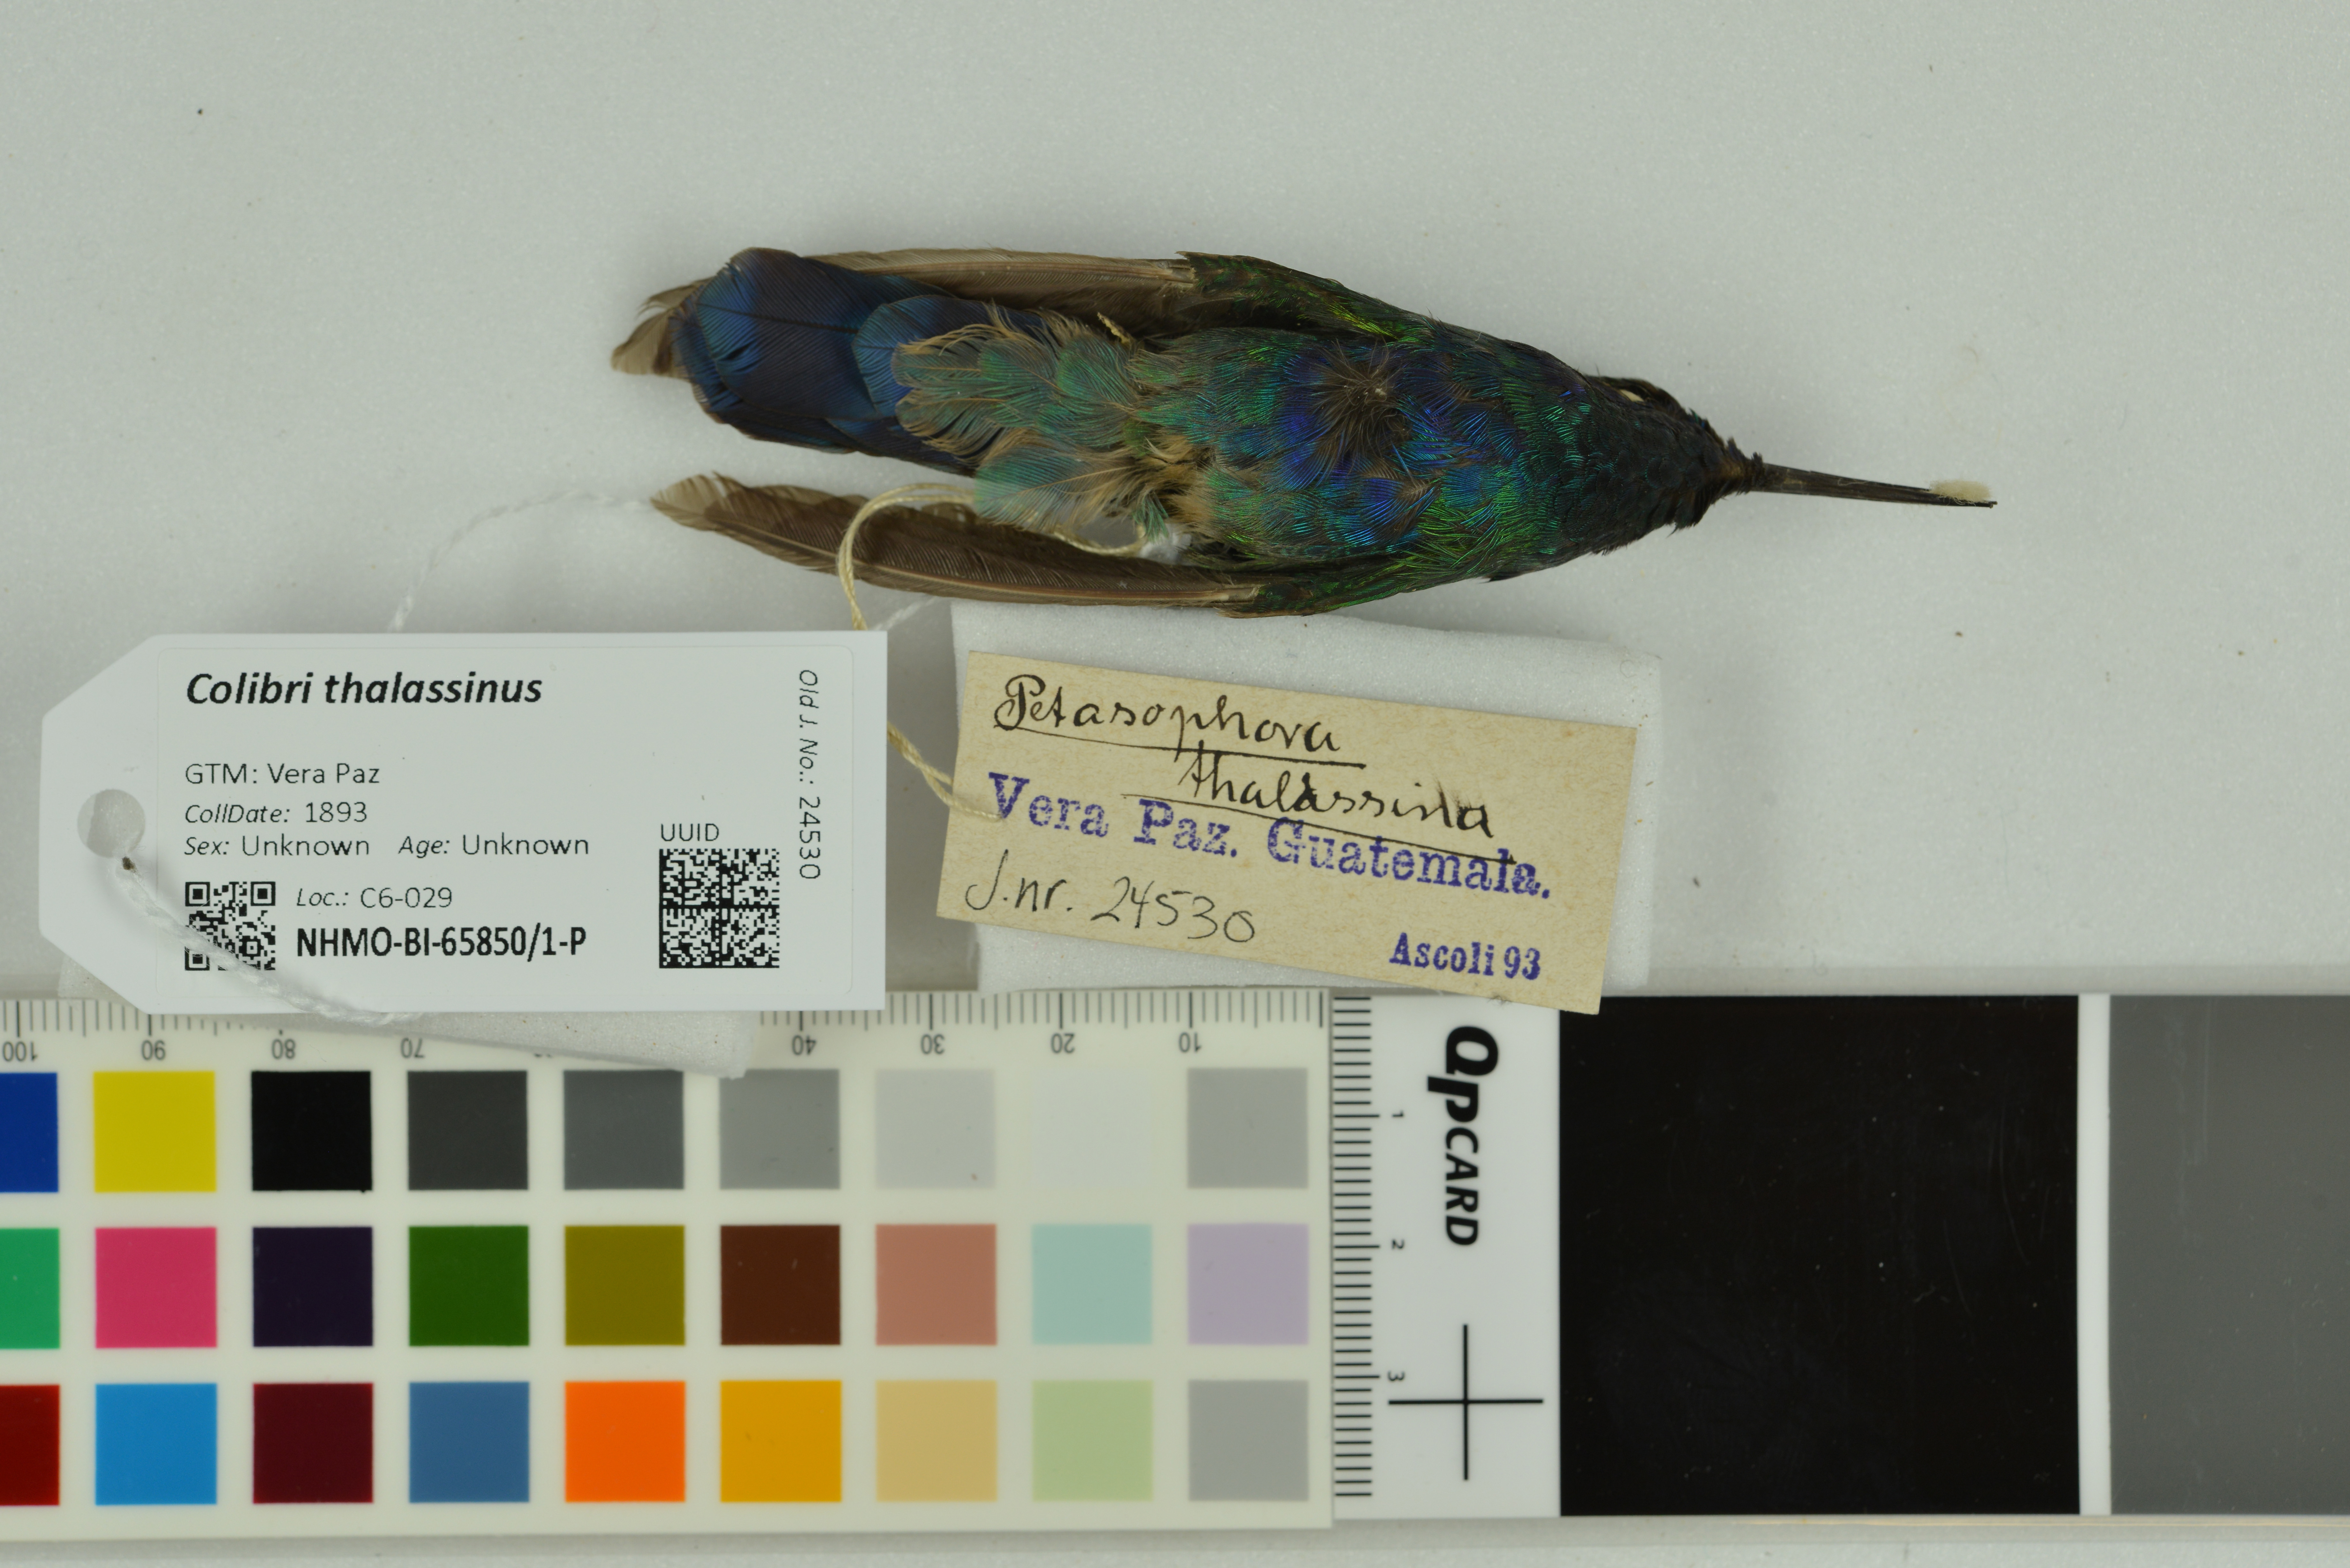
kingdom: Animalia
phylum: Chordata
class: Aves
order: Apodiformes
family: Trochilidae
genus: Colibri
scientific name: Colibri thalassinus
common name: Green violetear
